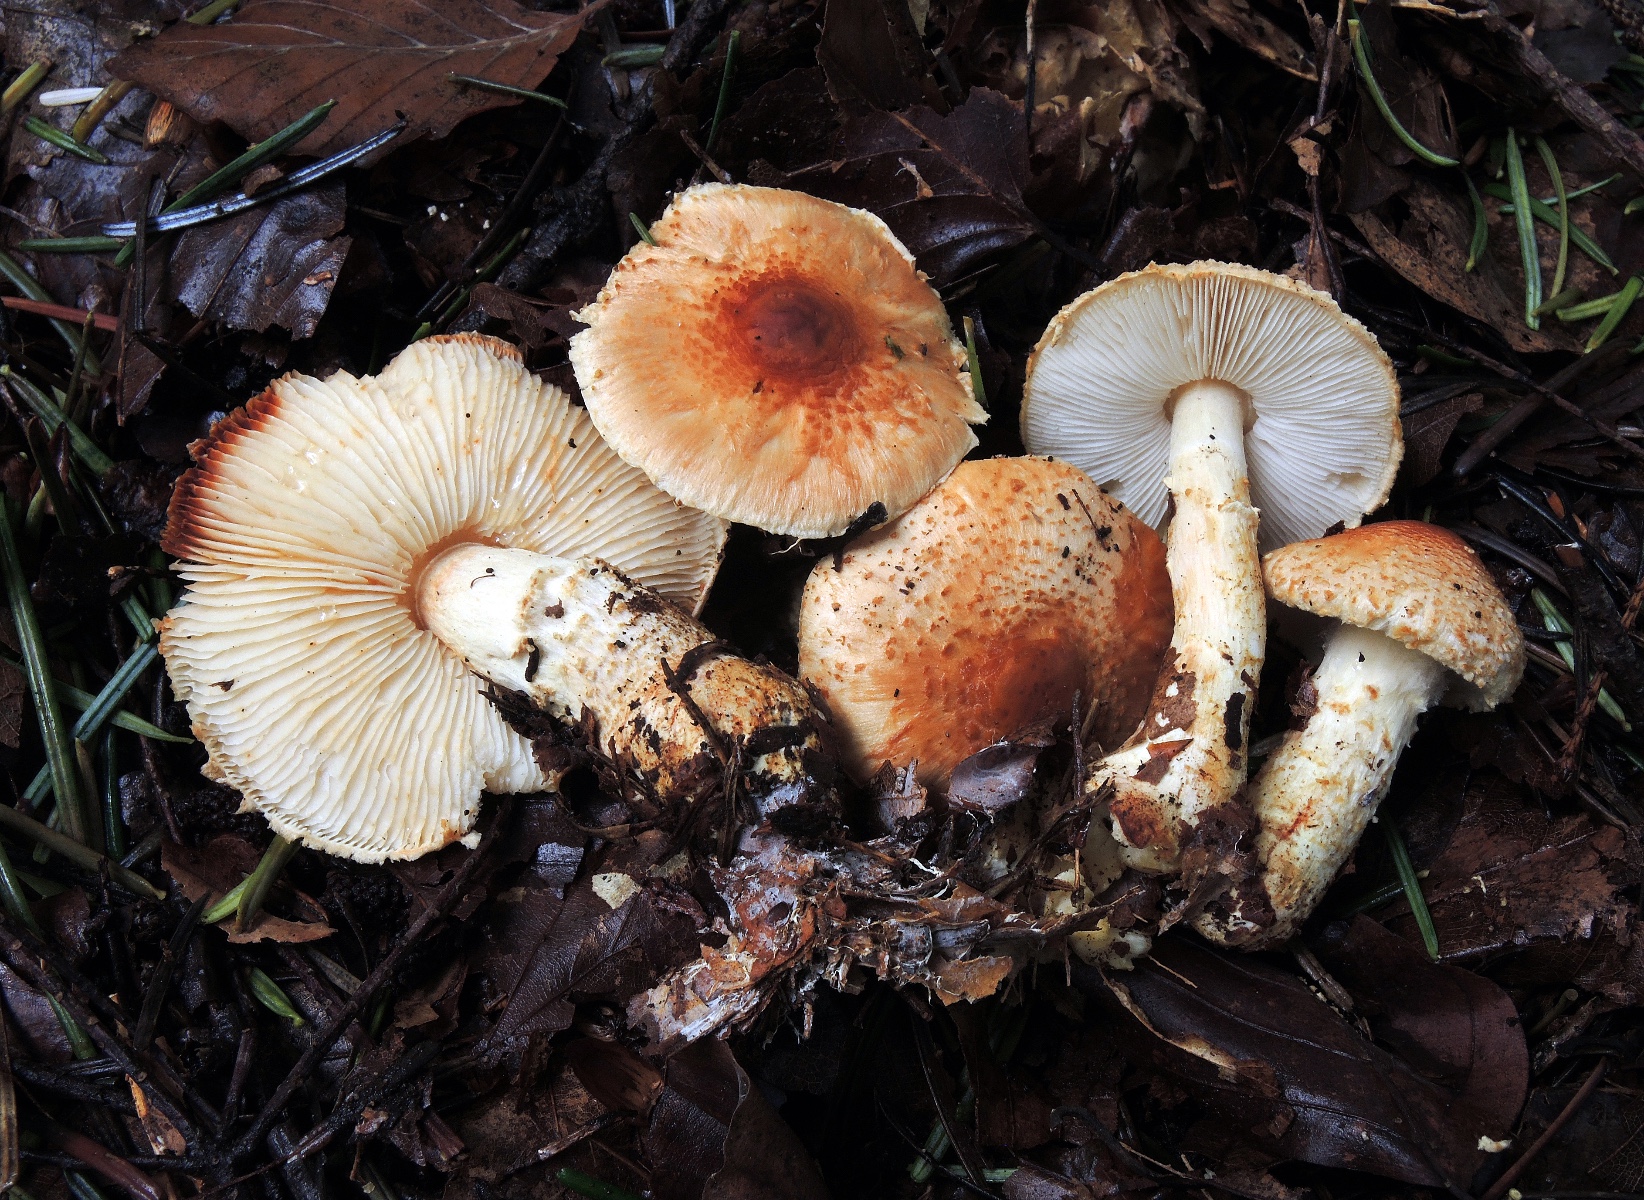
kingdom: Fungi
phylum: Basidiomycota
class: Agaricomycetes
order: Agaricales
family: Agaricaceae
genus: Lepiota
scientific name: Lepiota ochraceofulva
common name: sødtduftende parasolhat
